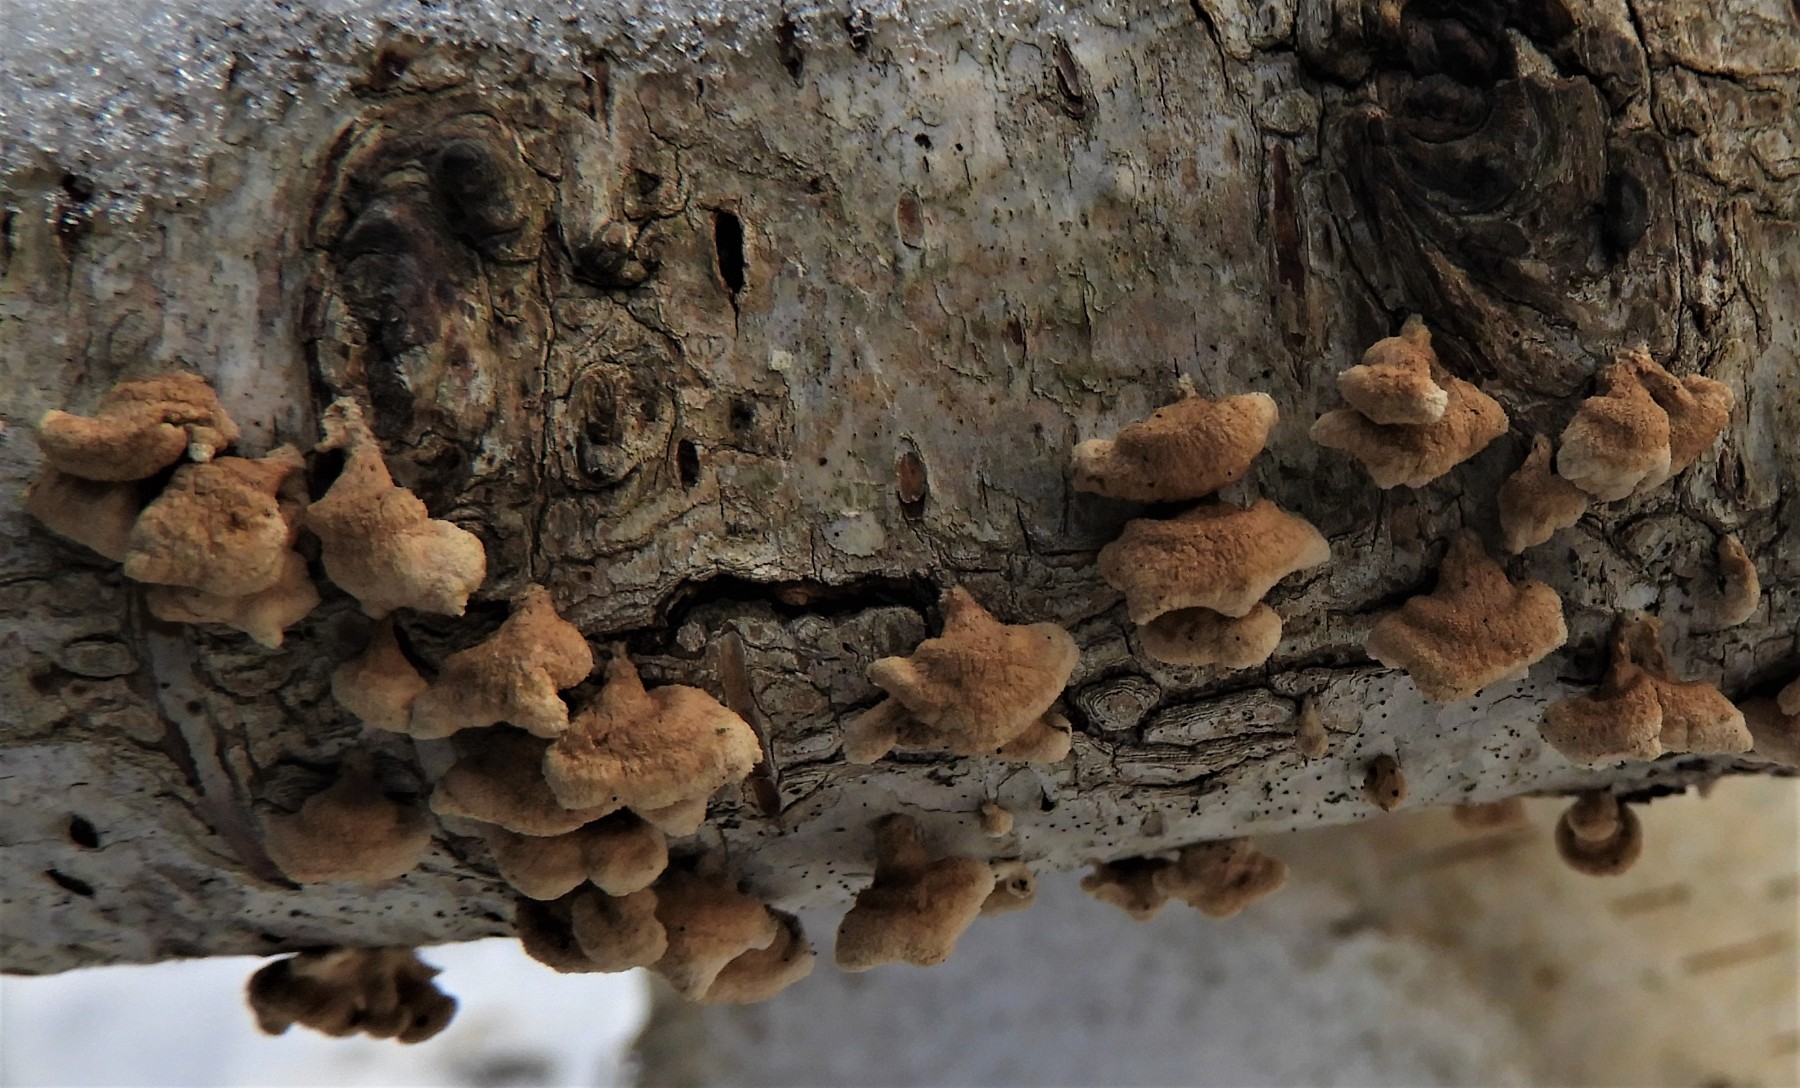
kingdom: Fungi
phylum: Basidiomycota
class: Agaricomycetes
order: Amylocorticiales
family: Amylocorticiaceae
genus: Plicaturopsis
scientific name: Plicaturopsis crispa
